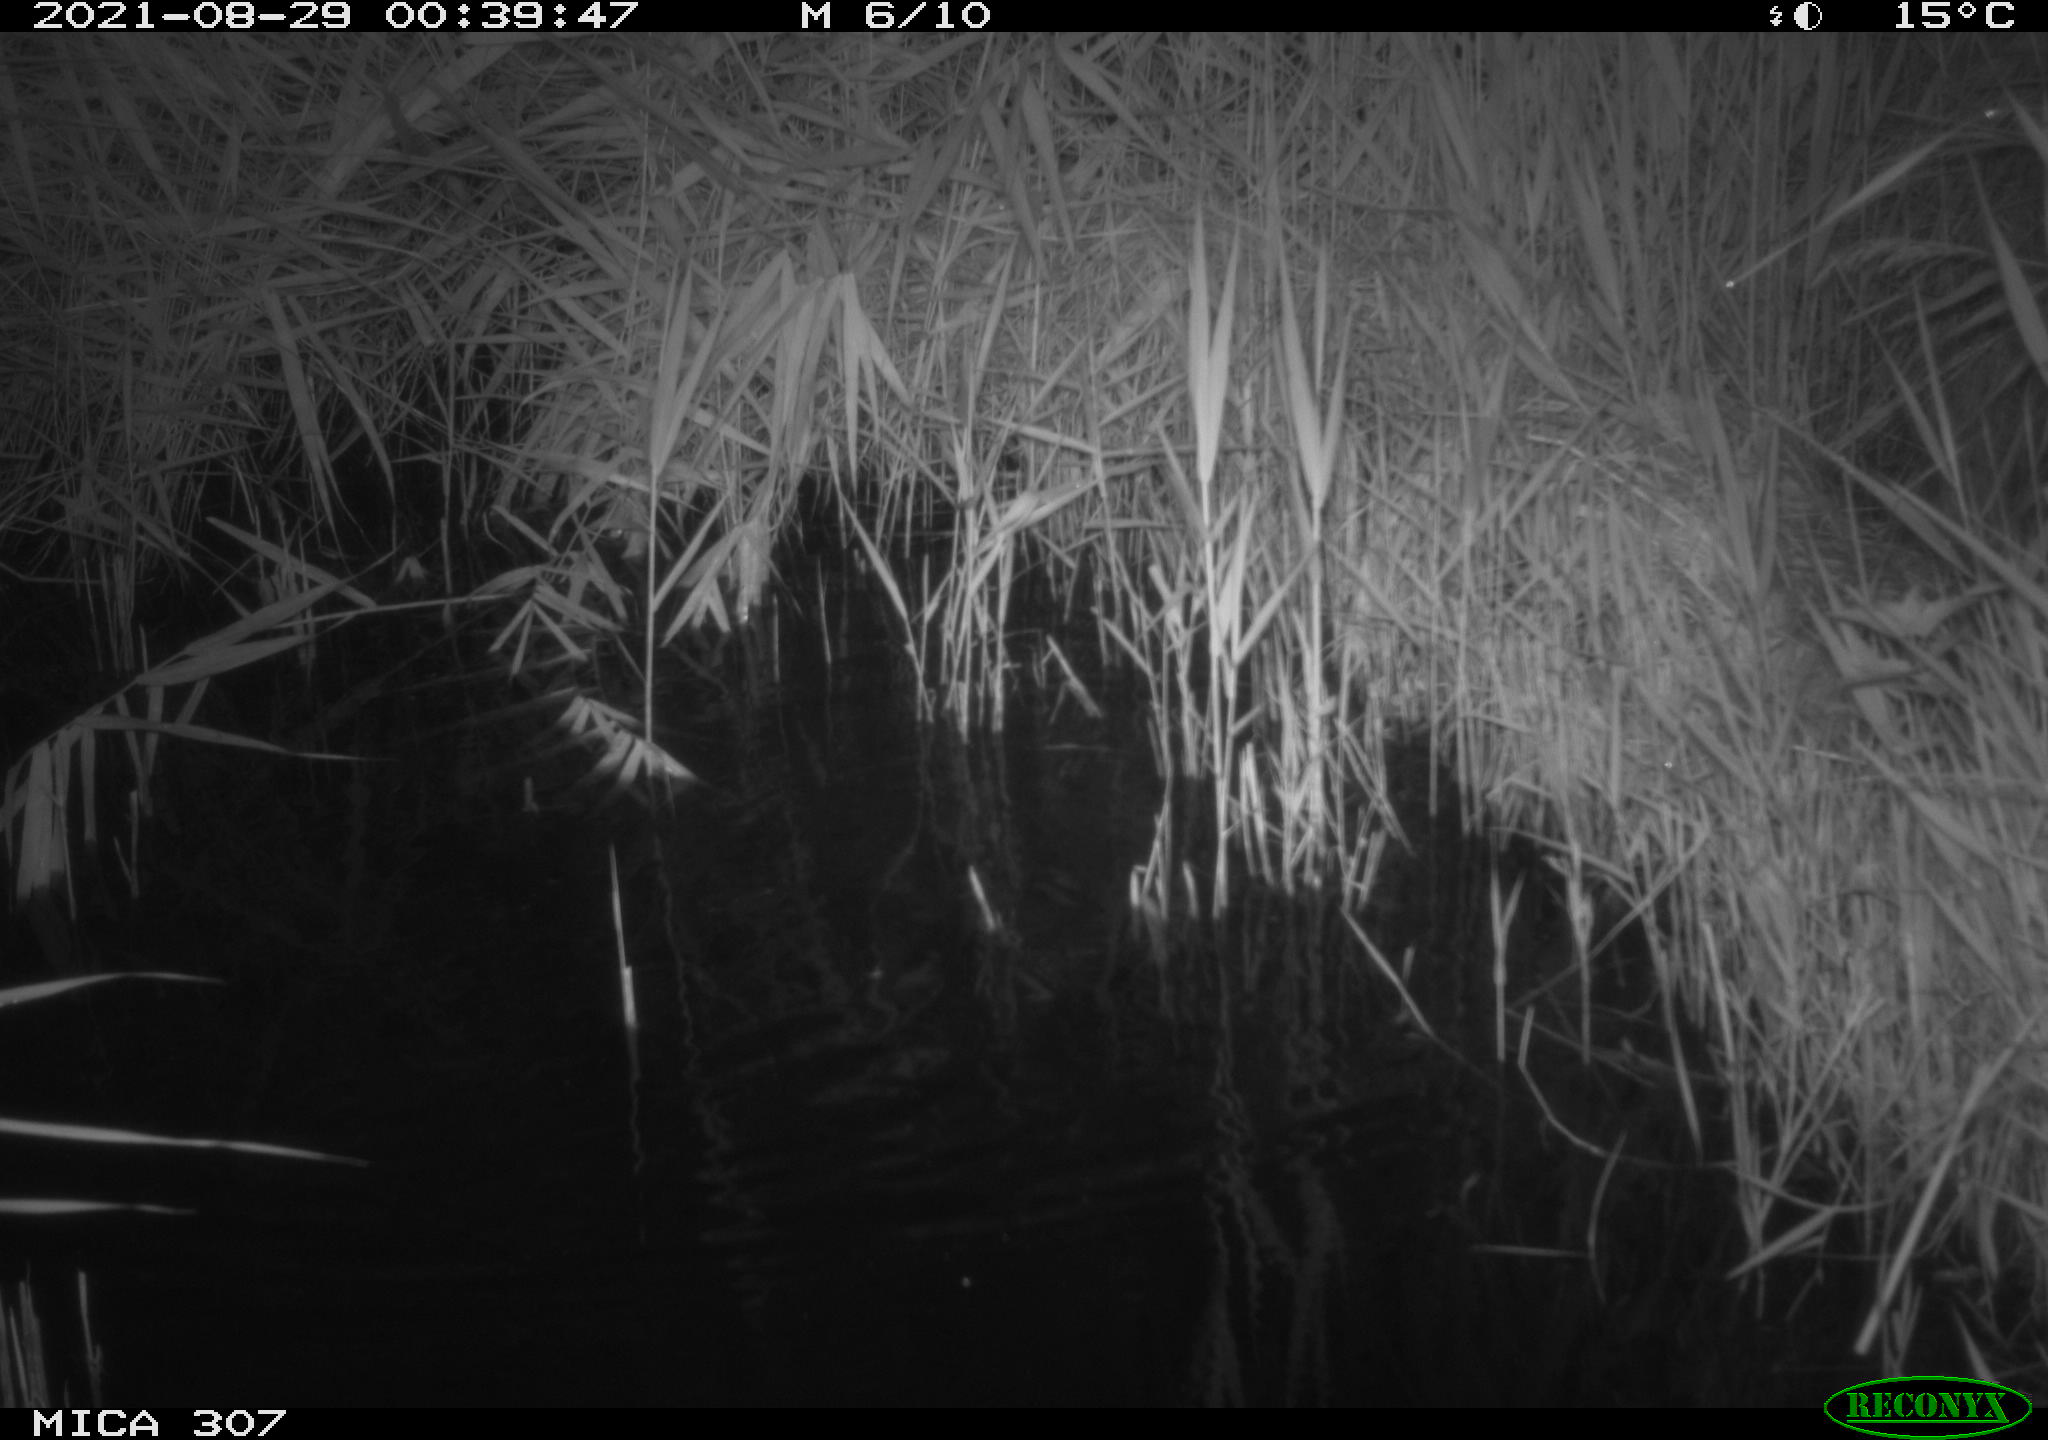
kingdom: Animalia
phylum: Chordata
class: Mammalia
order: Rodentia
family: Muridae
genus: Rattus
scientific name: Rattus norvegicus
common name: Brown rat
